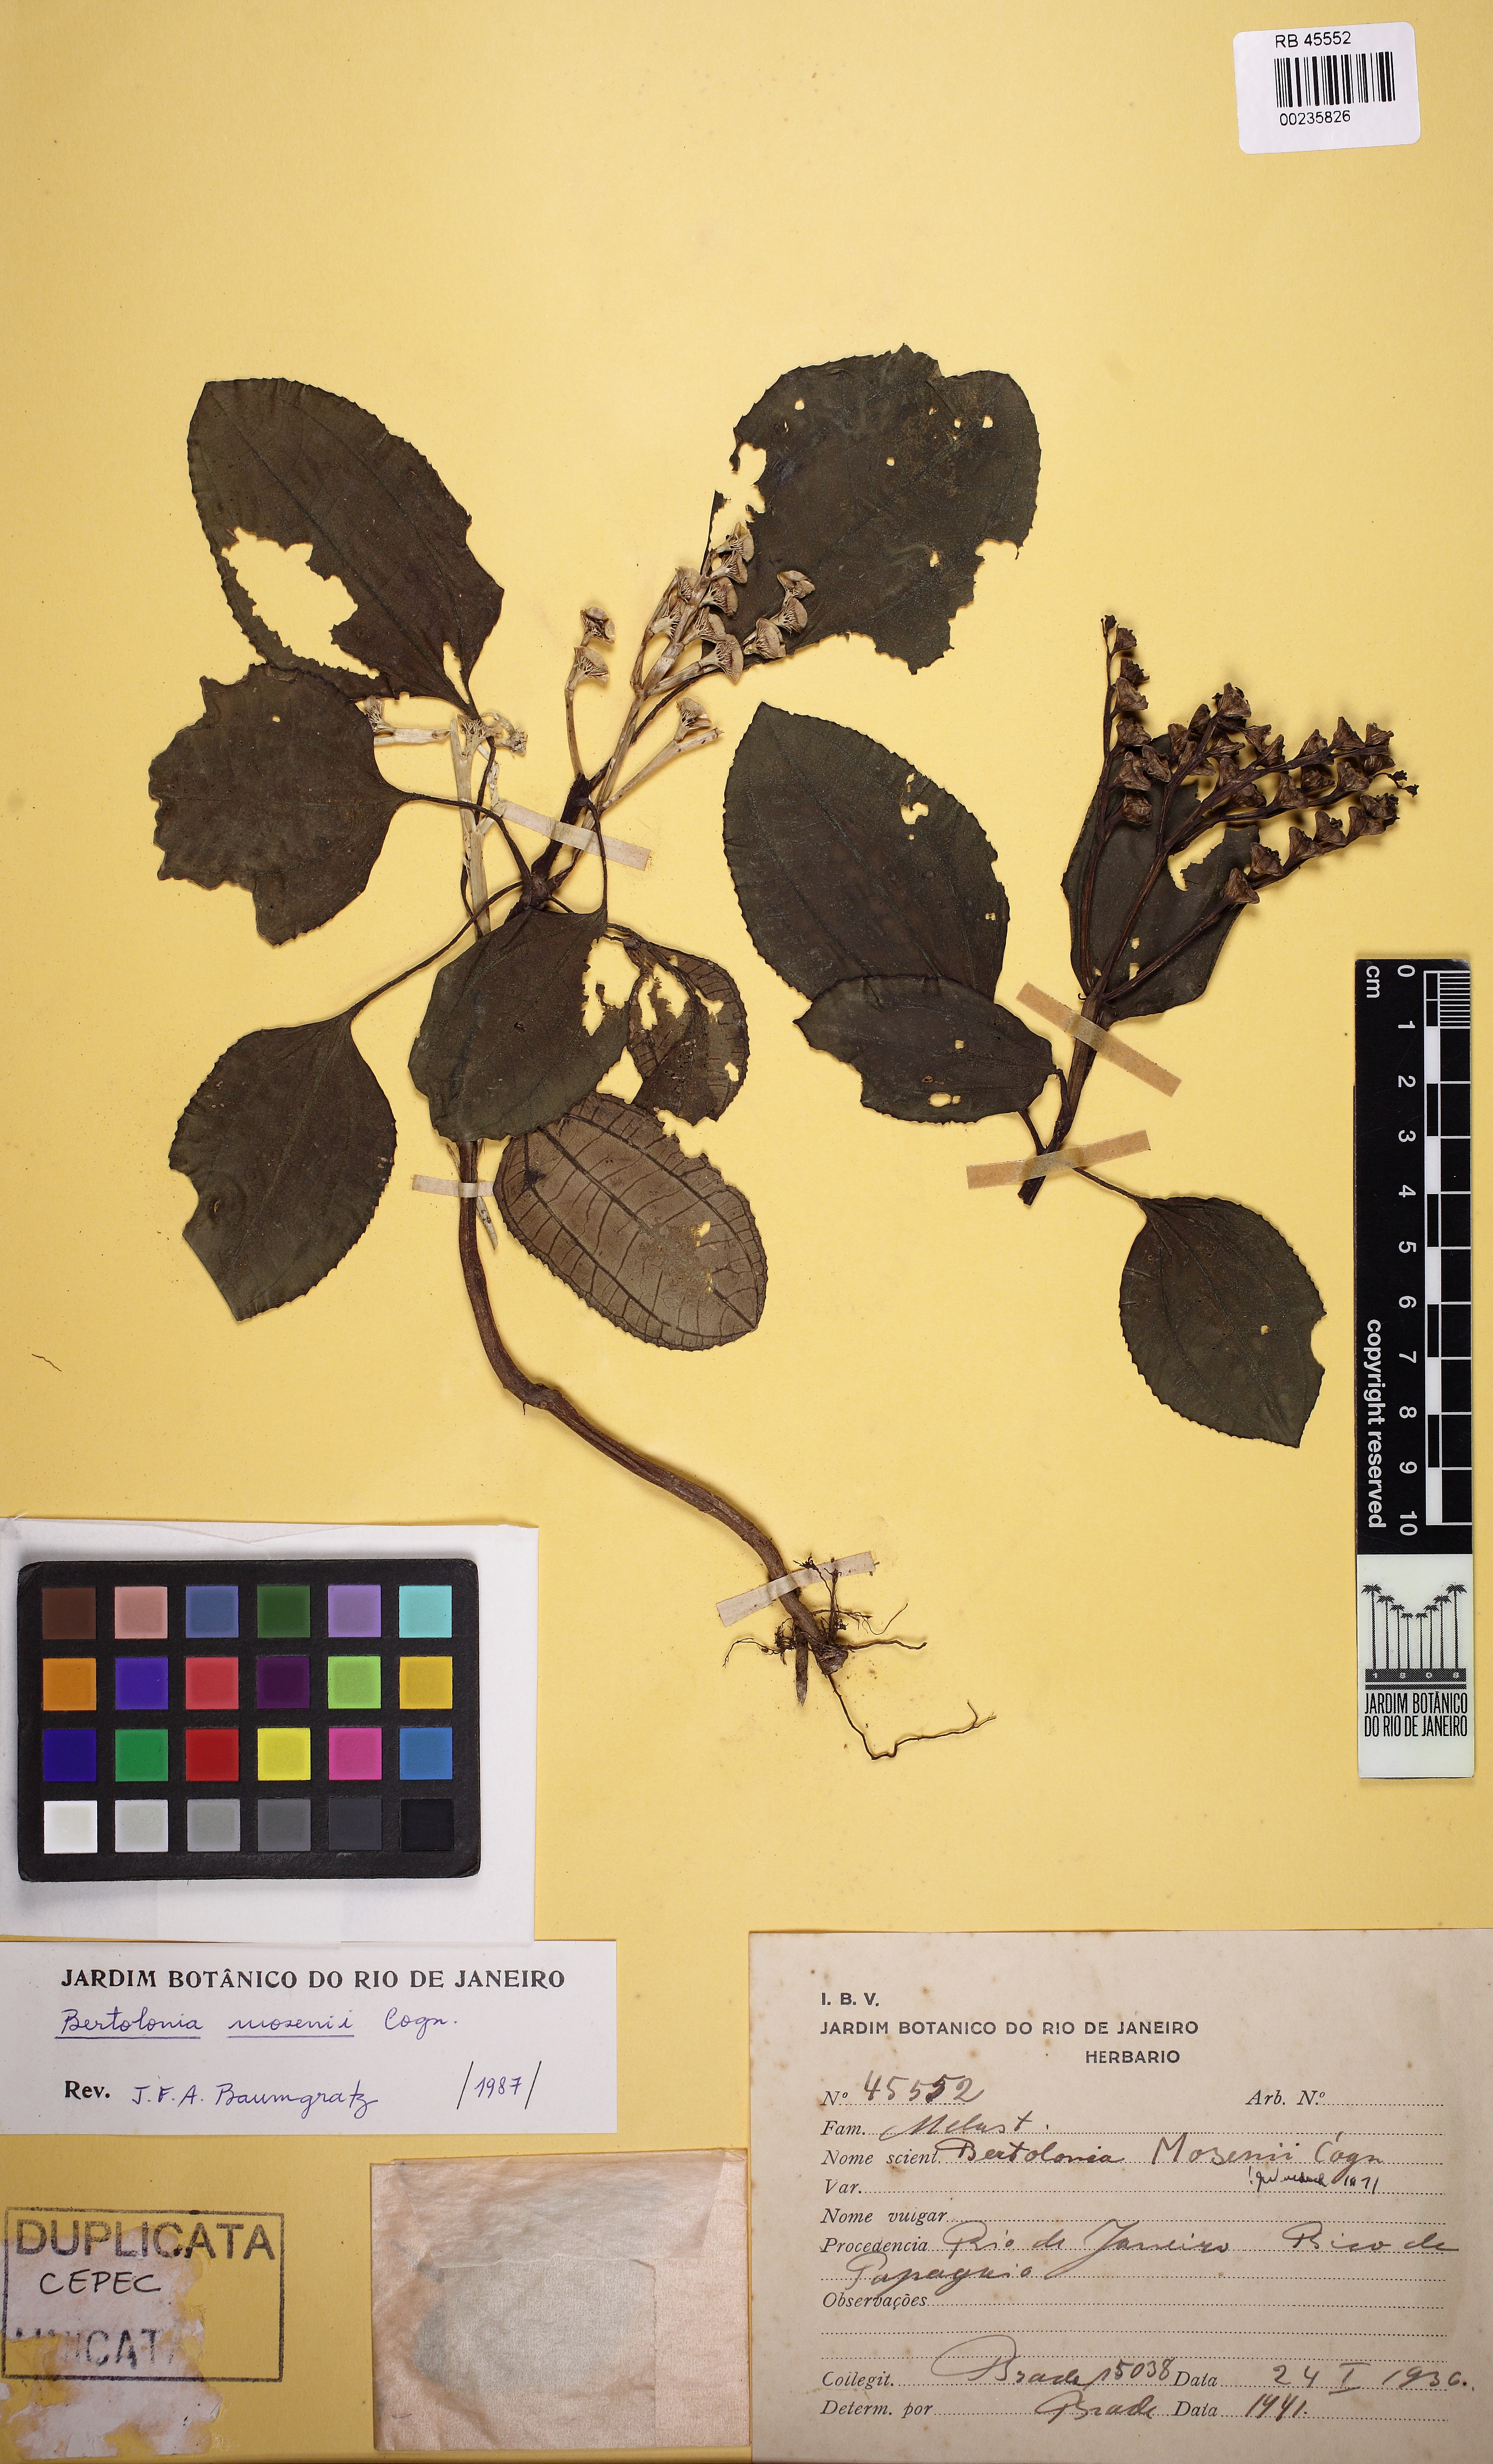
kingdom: Plantae
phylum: Tracheophyta
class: Magnoliopsida
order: Myrtales
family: Melastomataceae
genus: Bertolonia
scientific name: Bertolonia mosenii
